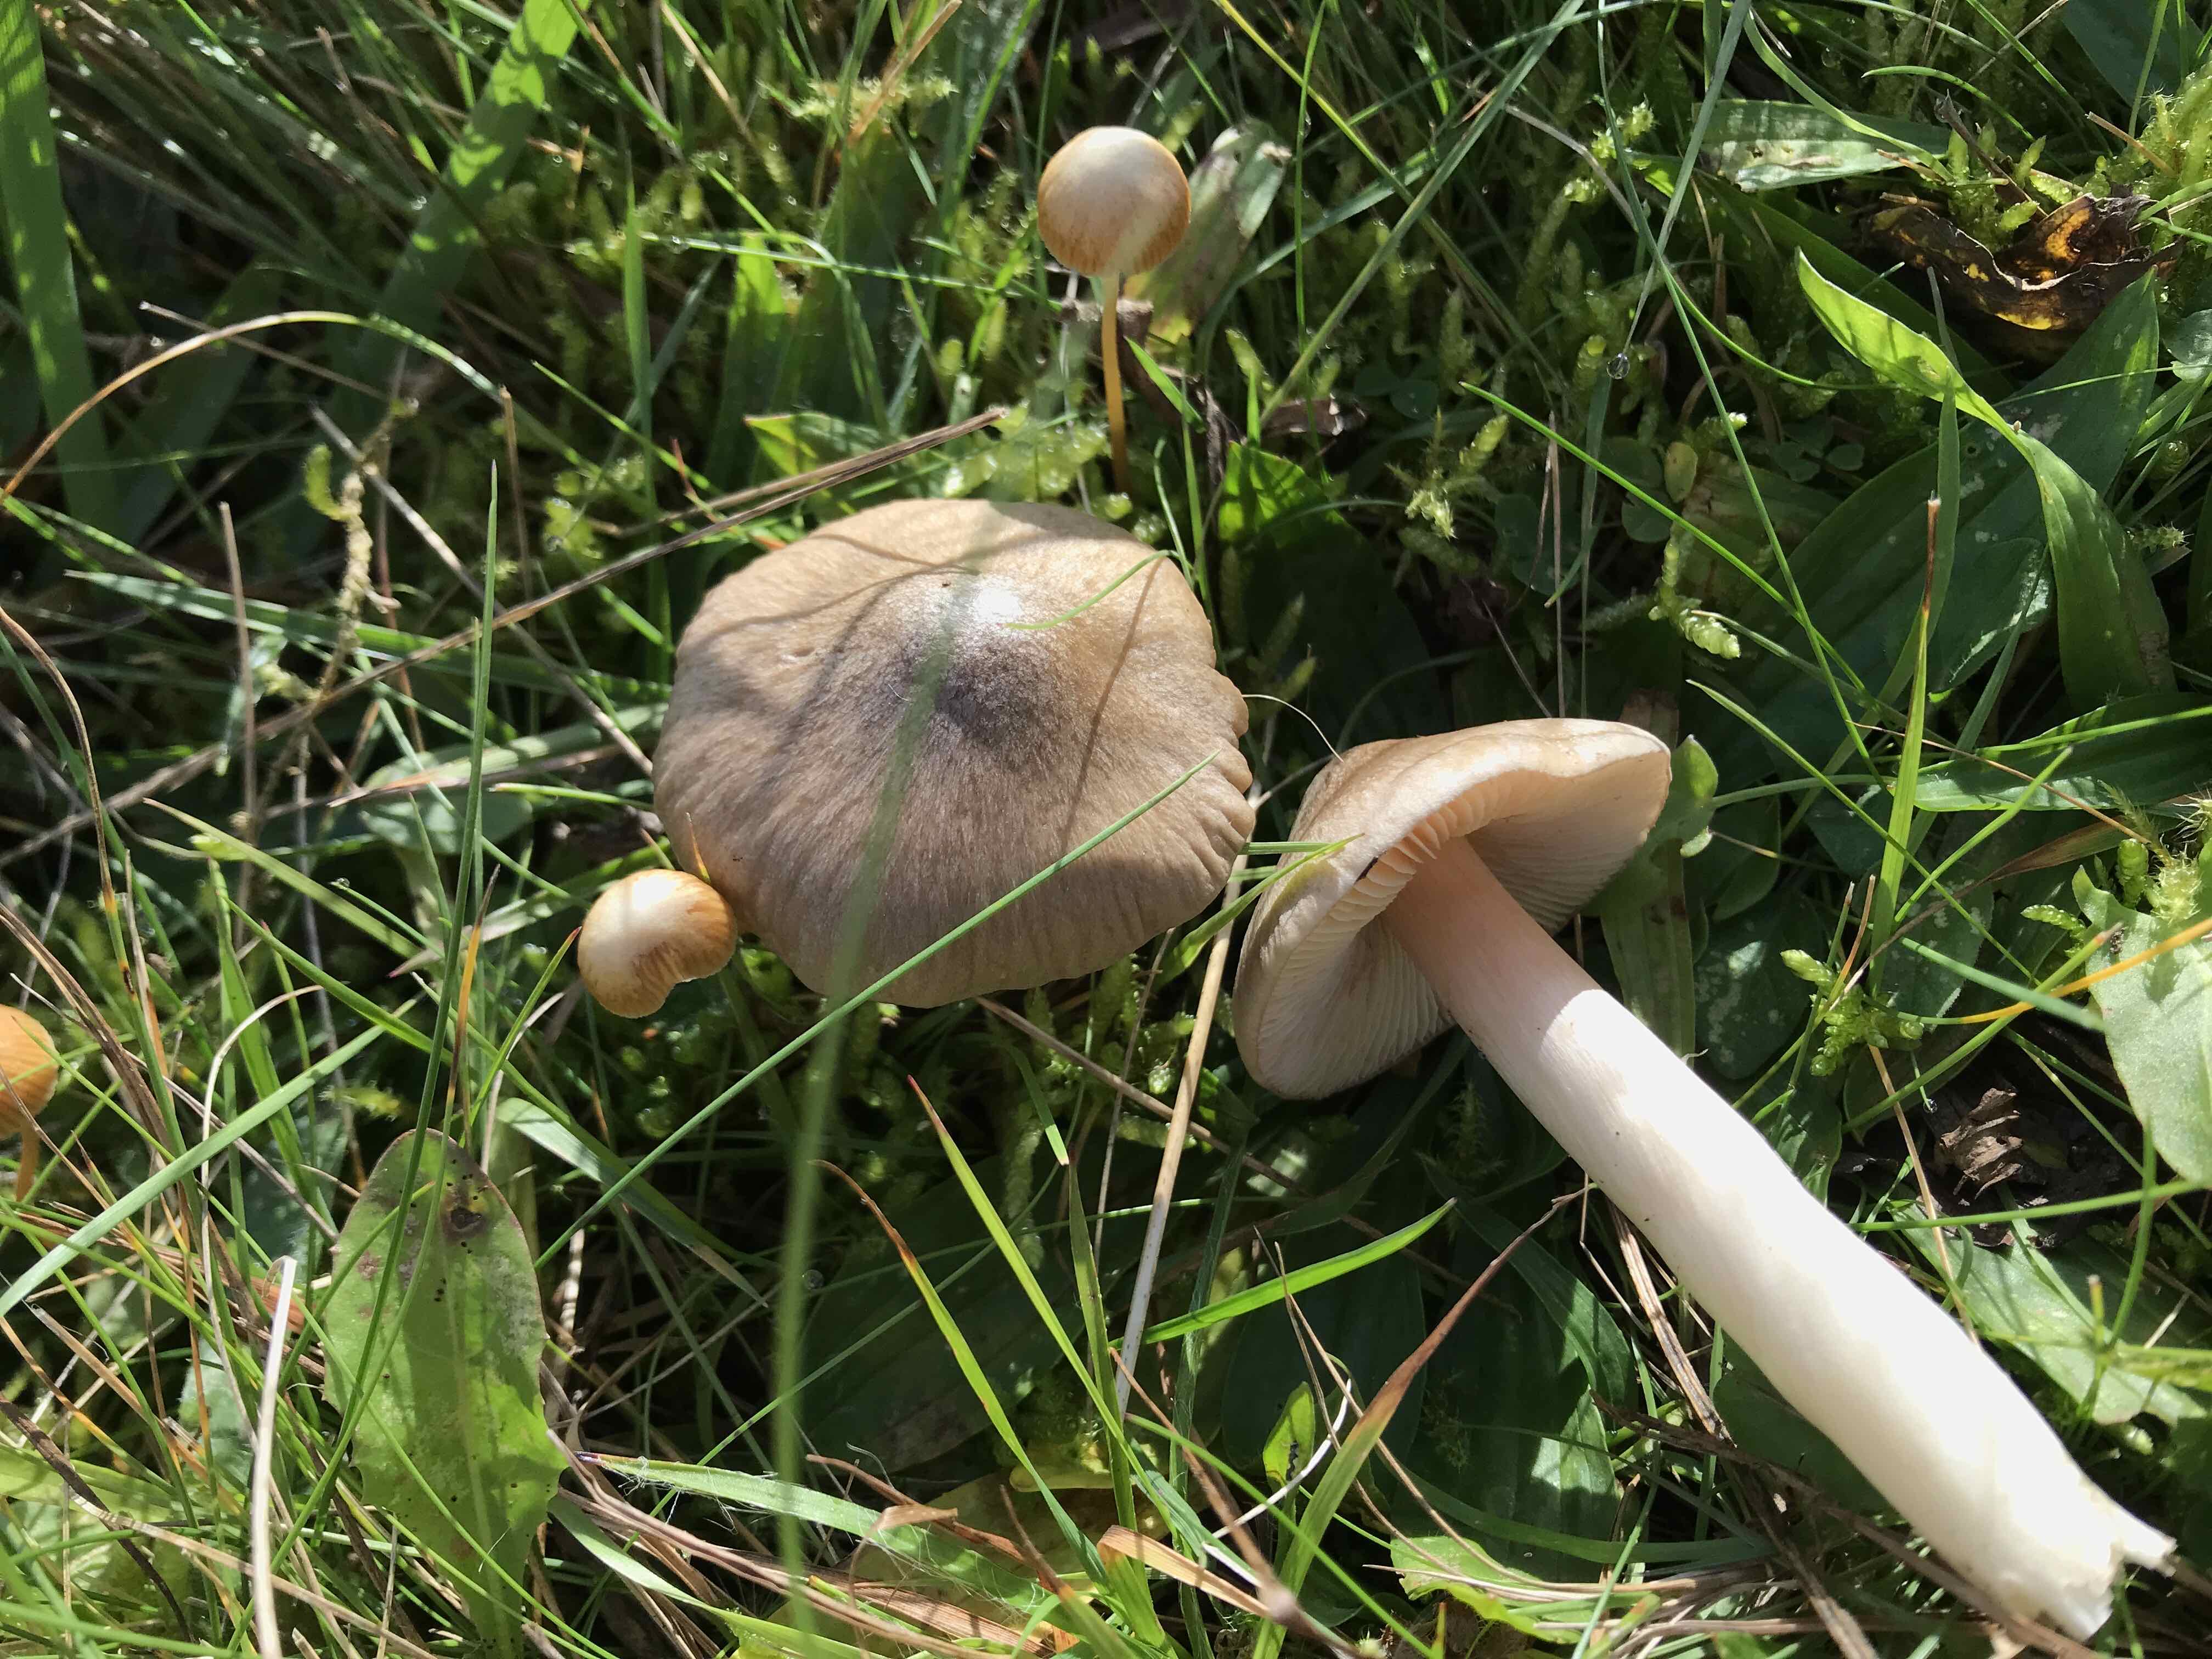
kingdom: Fungi
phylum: Basidiomycota
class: Agaricomycetes
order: Agaricales
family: Entolomataceae
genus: Entoloma
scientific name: Entoloma prunuloides
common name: mel-rødblad
